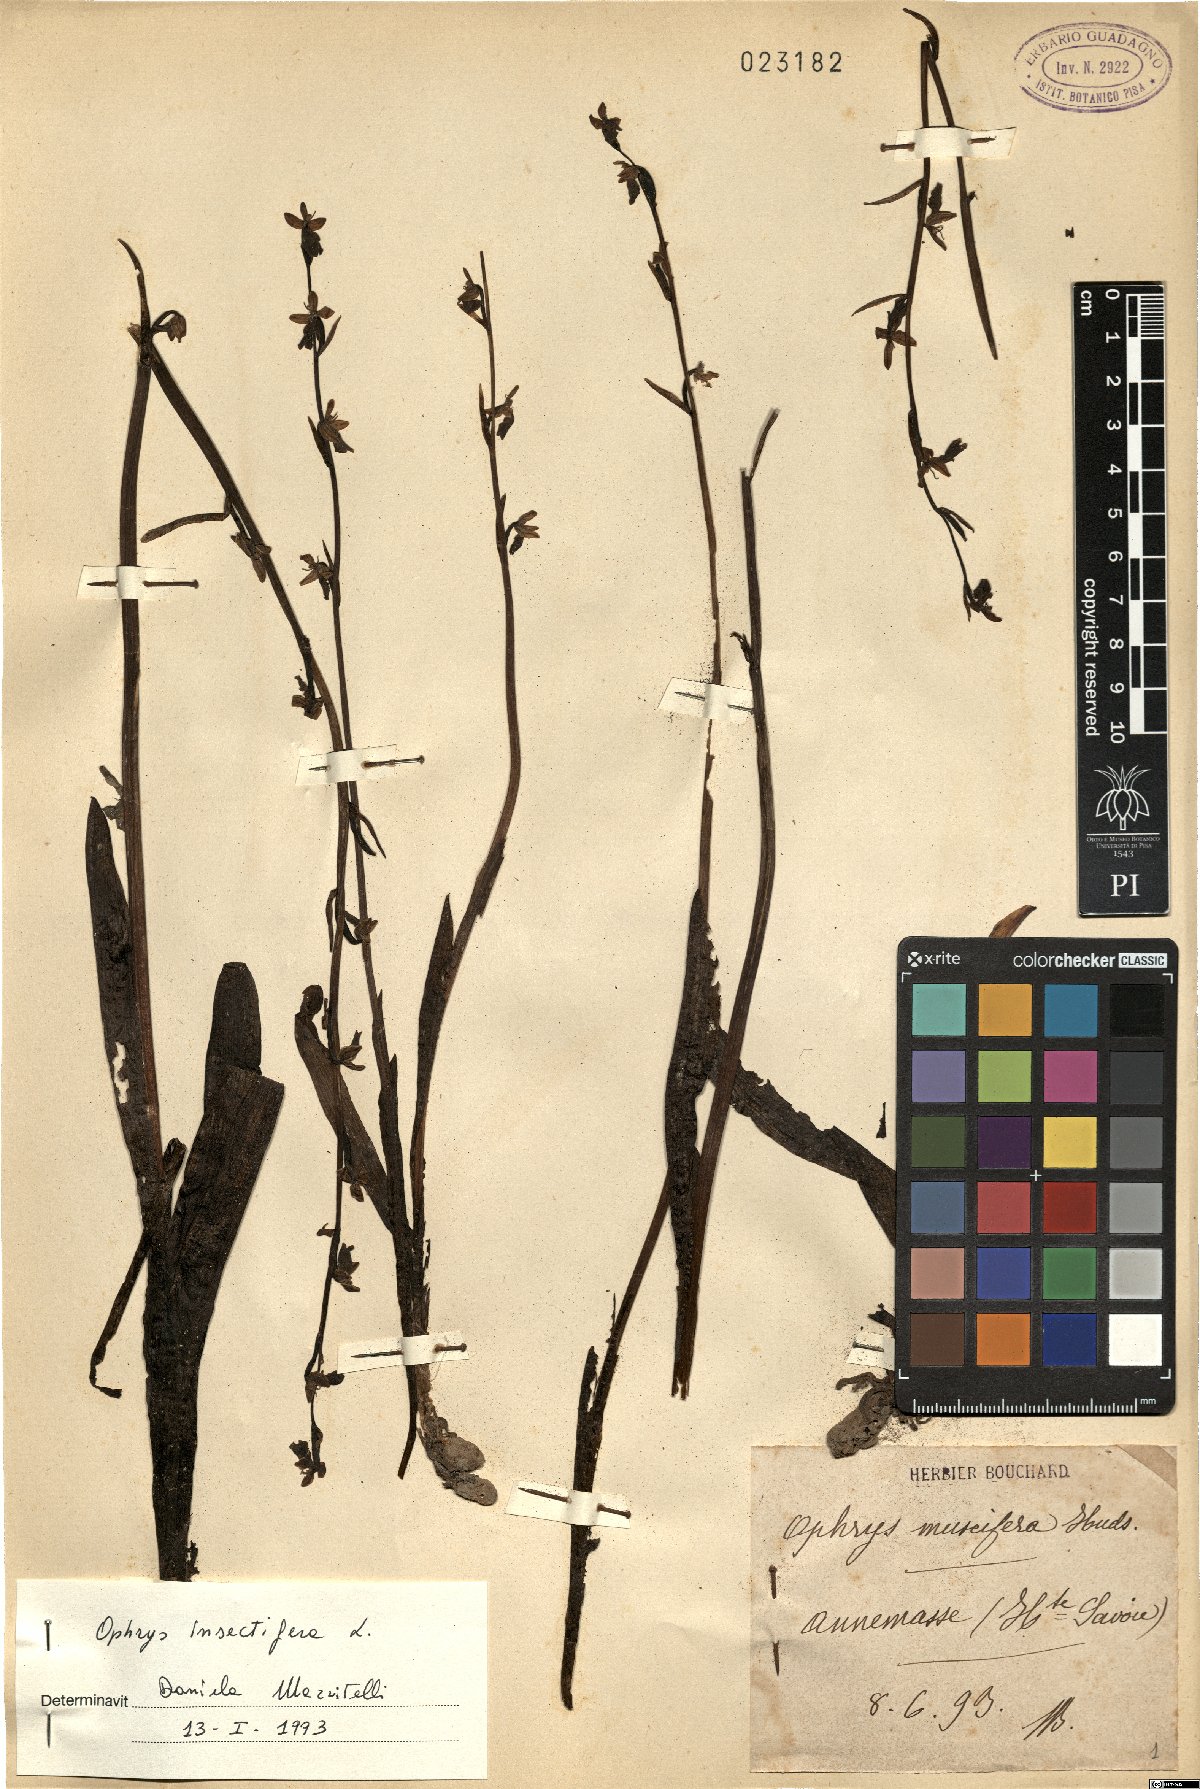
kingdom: Plantae
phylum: Tracheophyta
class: Liliopsida
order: Asparagales
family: Orchidaceae
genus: Ophrys
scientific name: Ophrys insectifera
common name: Fly orchid
